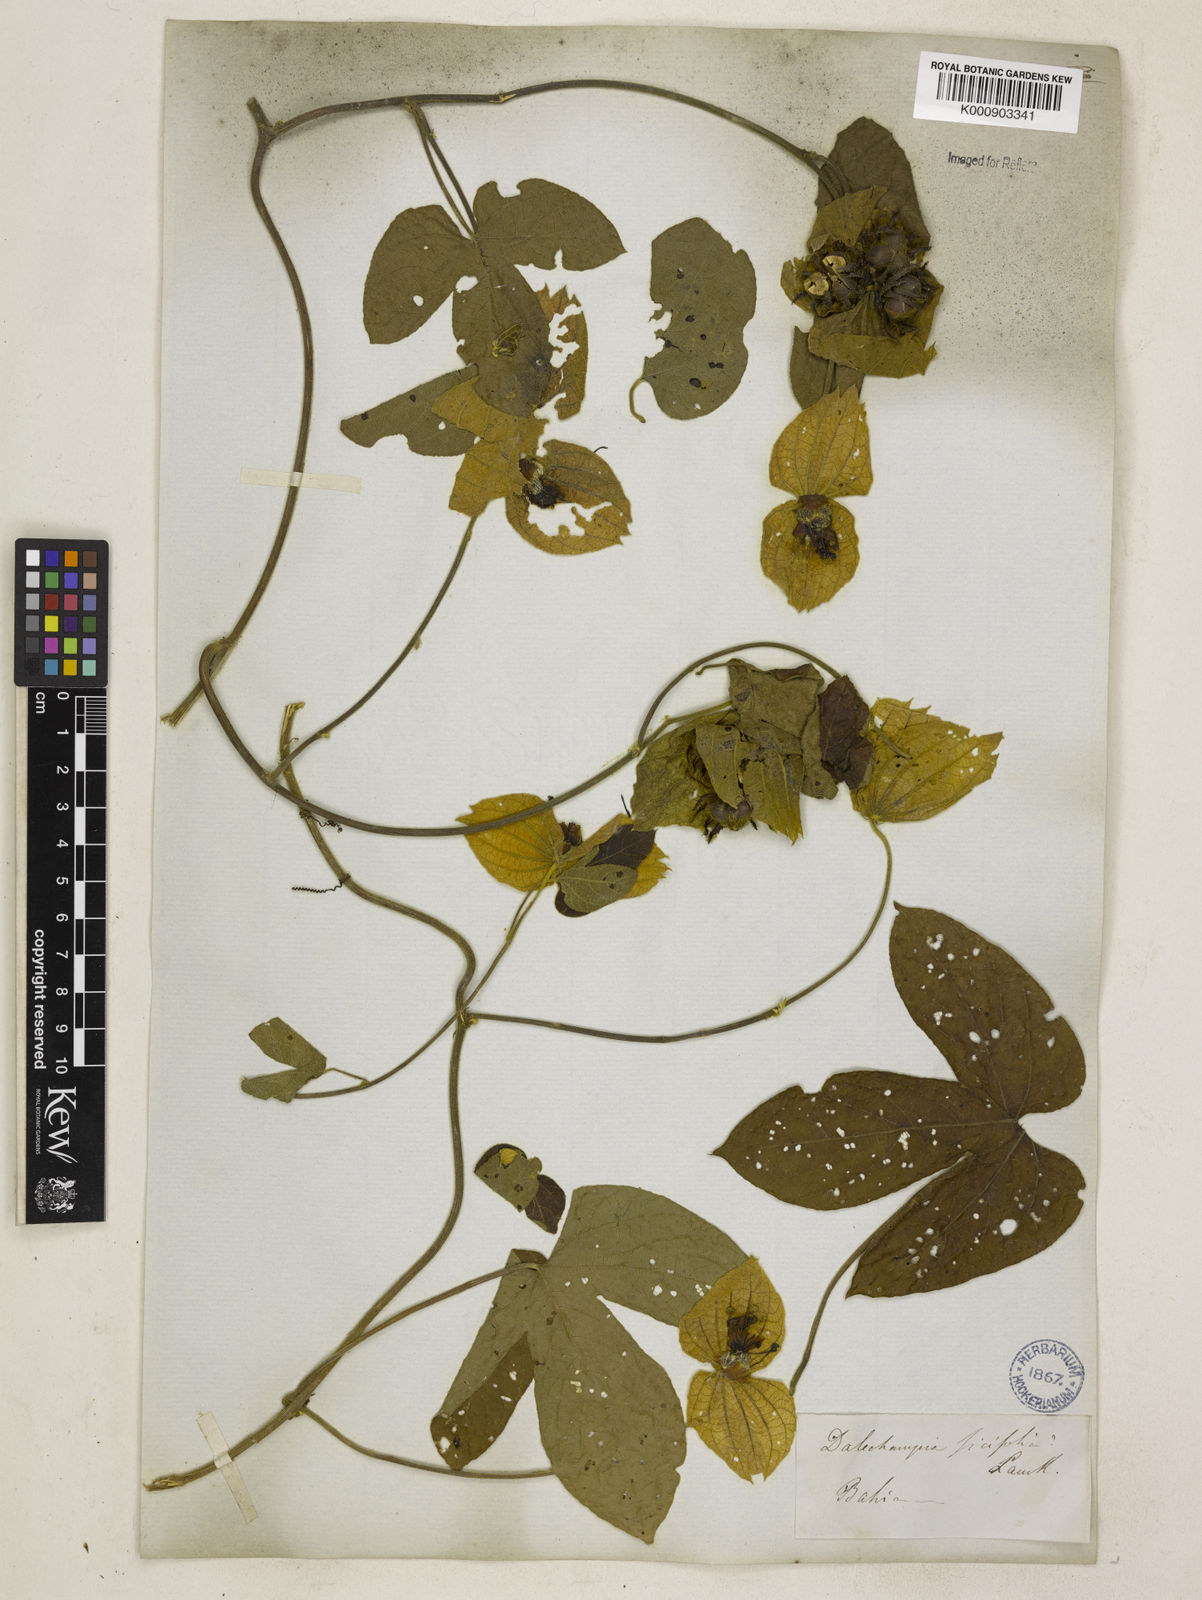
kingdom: Plantae
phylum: Tracheophyta
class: Magnoliopsida
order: Malpighiales
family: Euphorbiaceae
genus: Dalechampia
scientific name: Dalechampia tiliifolia
